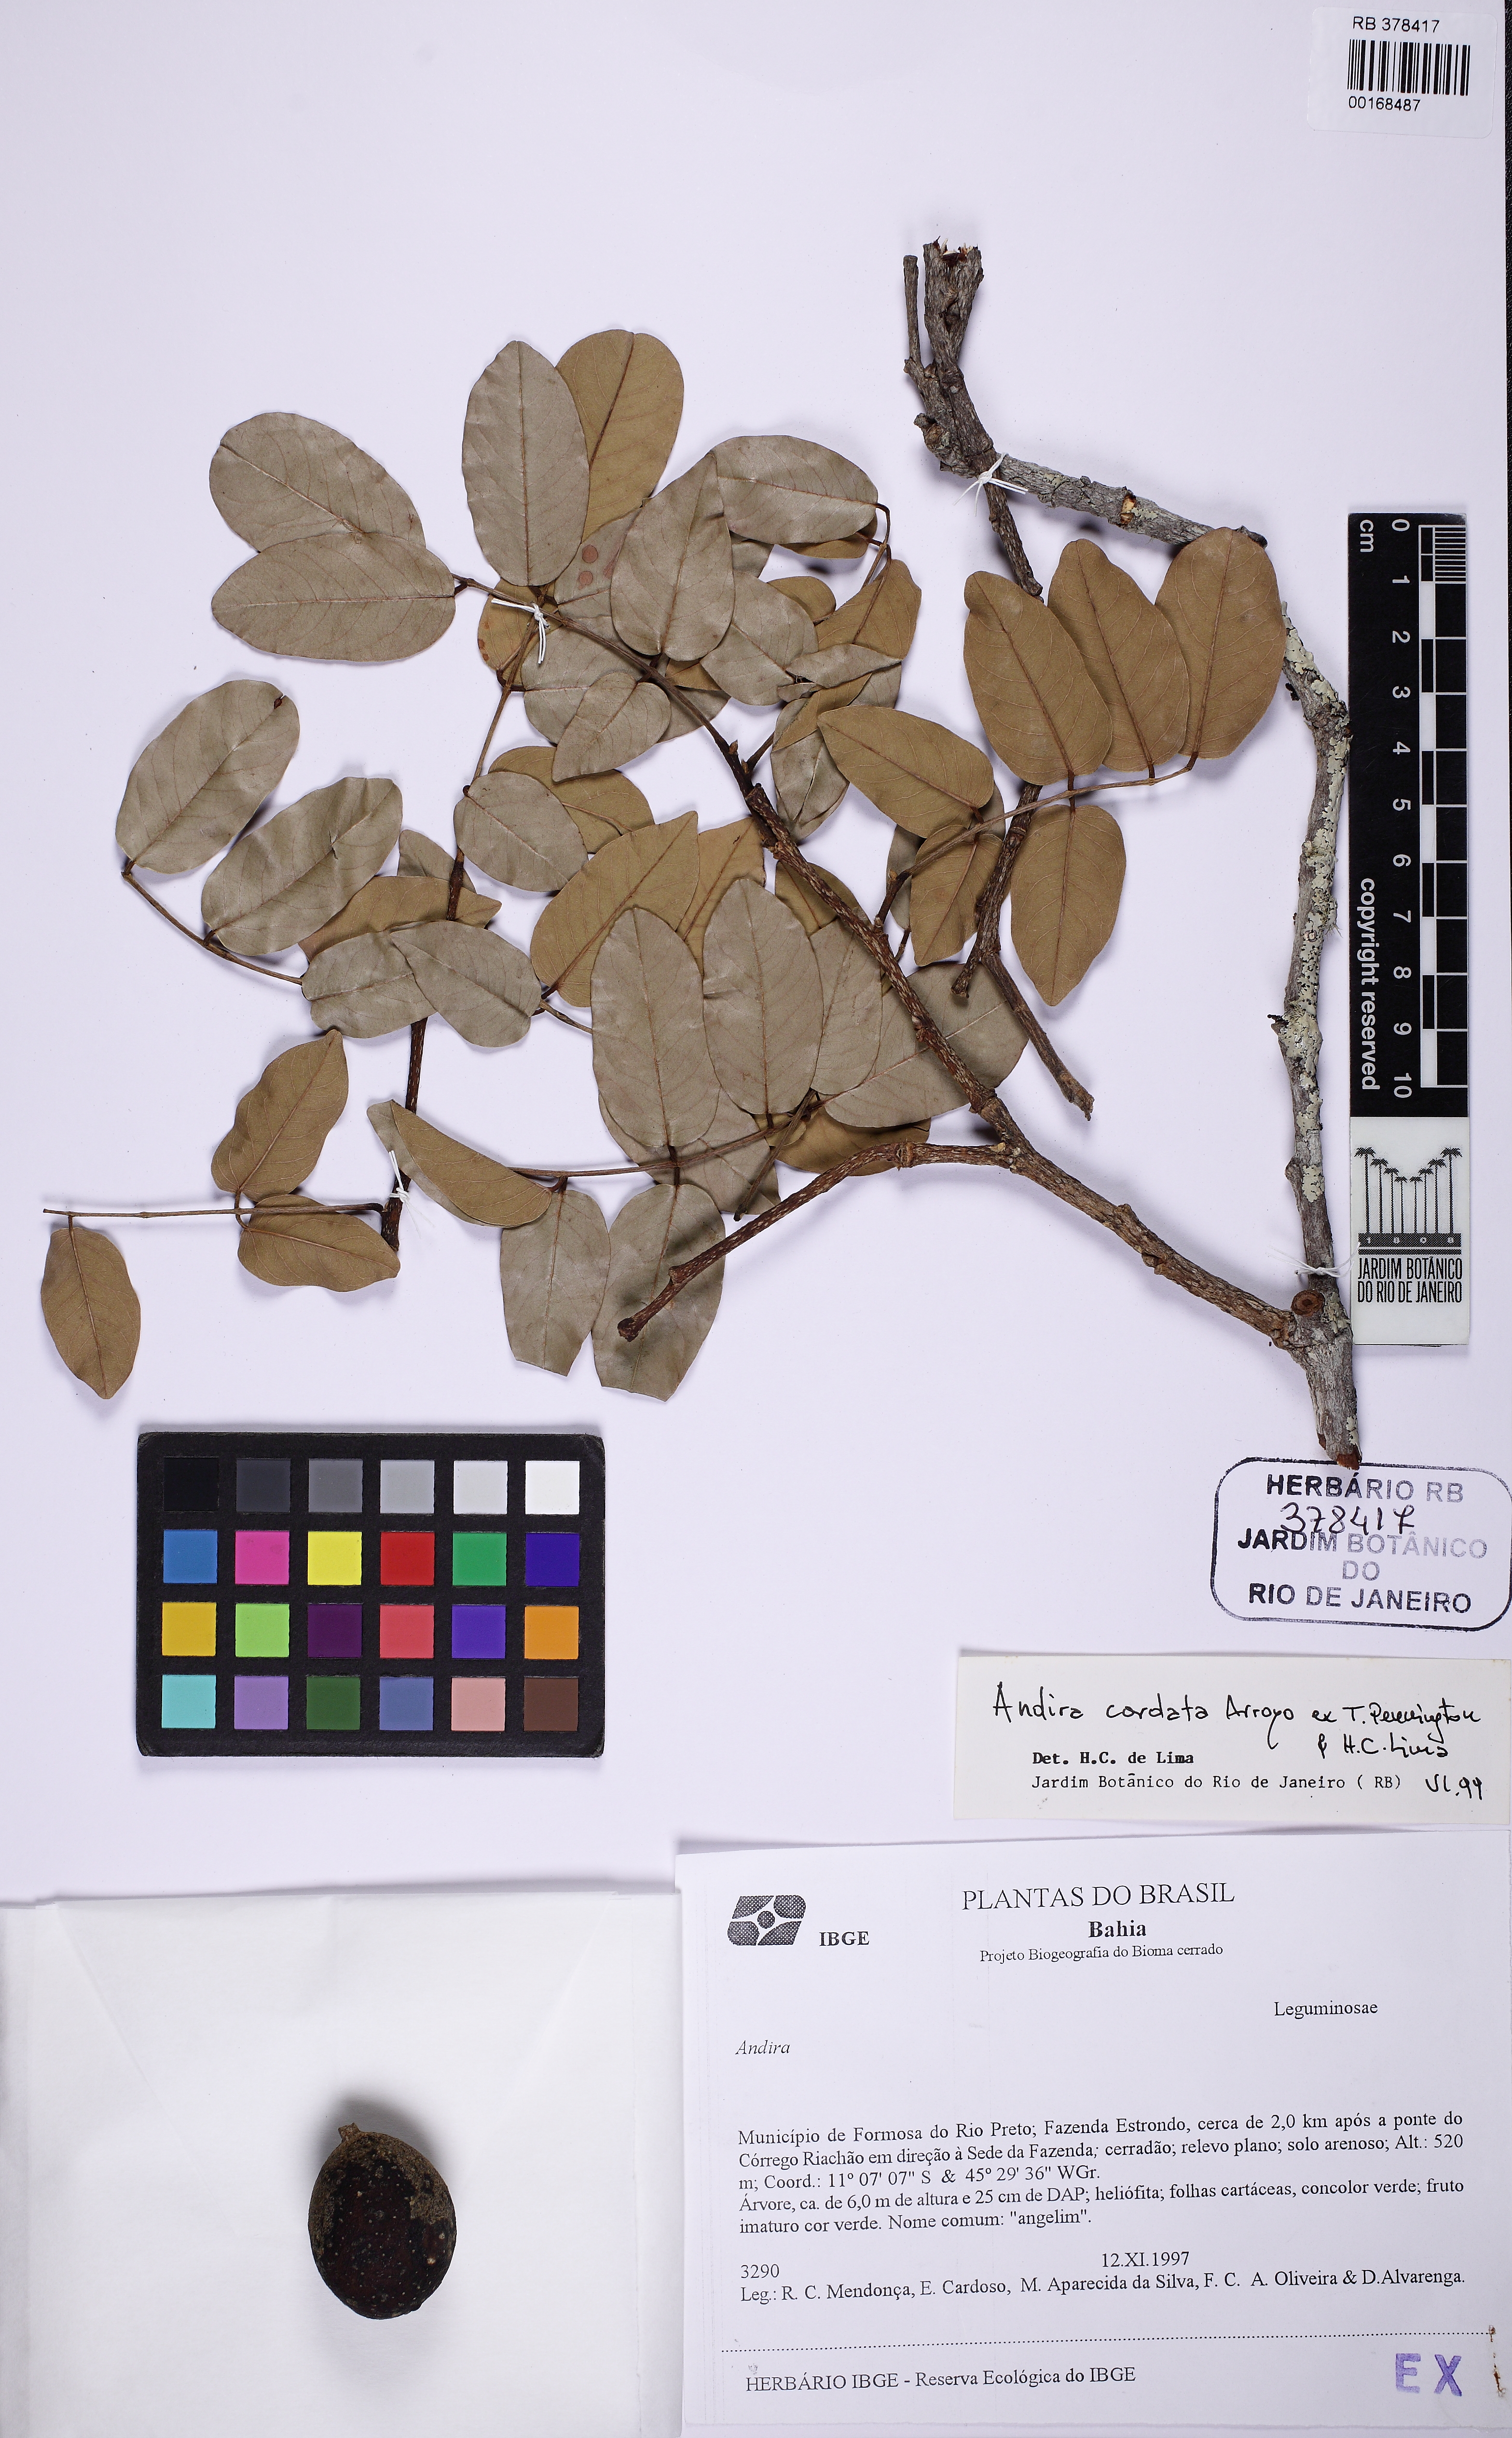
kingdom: Plantae
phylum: Tracheophyta
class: Magnoliopsida
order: Fabales
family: Fabaceae
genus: Andira
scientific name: Andira cordata
